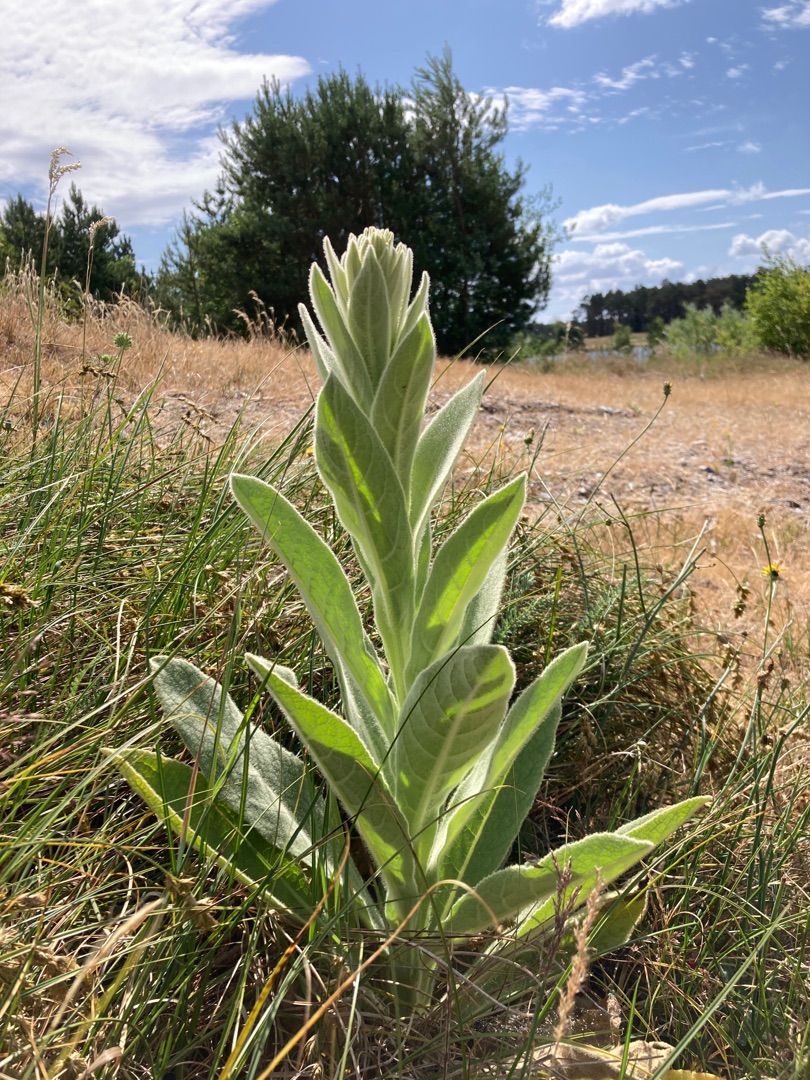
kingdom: Plantae
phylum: Tracheophyta
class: Magnoliopsida
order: Lamiales
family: Scrophulariaceae
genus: Verbascum
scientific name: Verbascum thapsus
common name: Filtbladet kongelys
